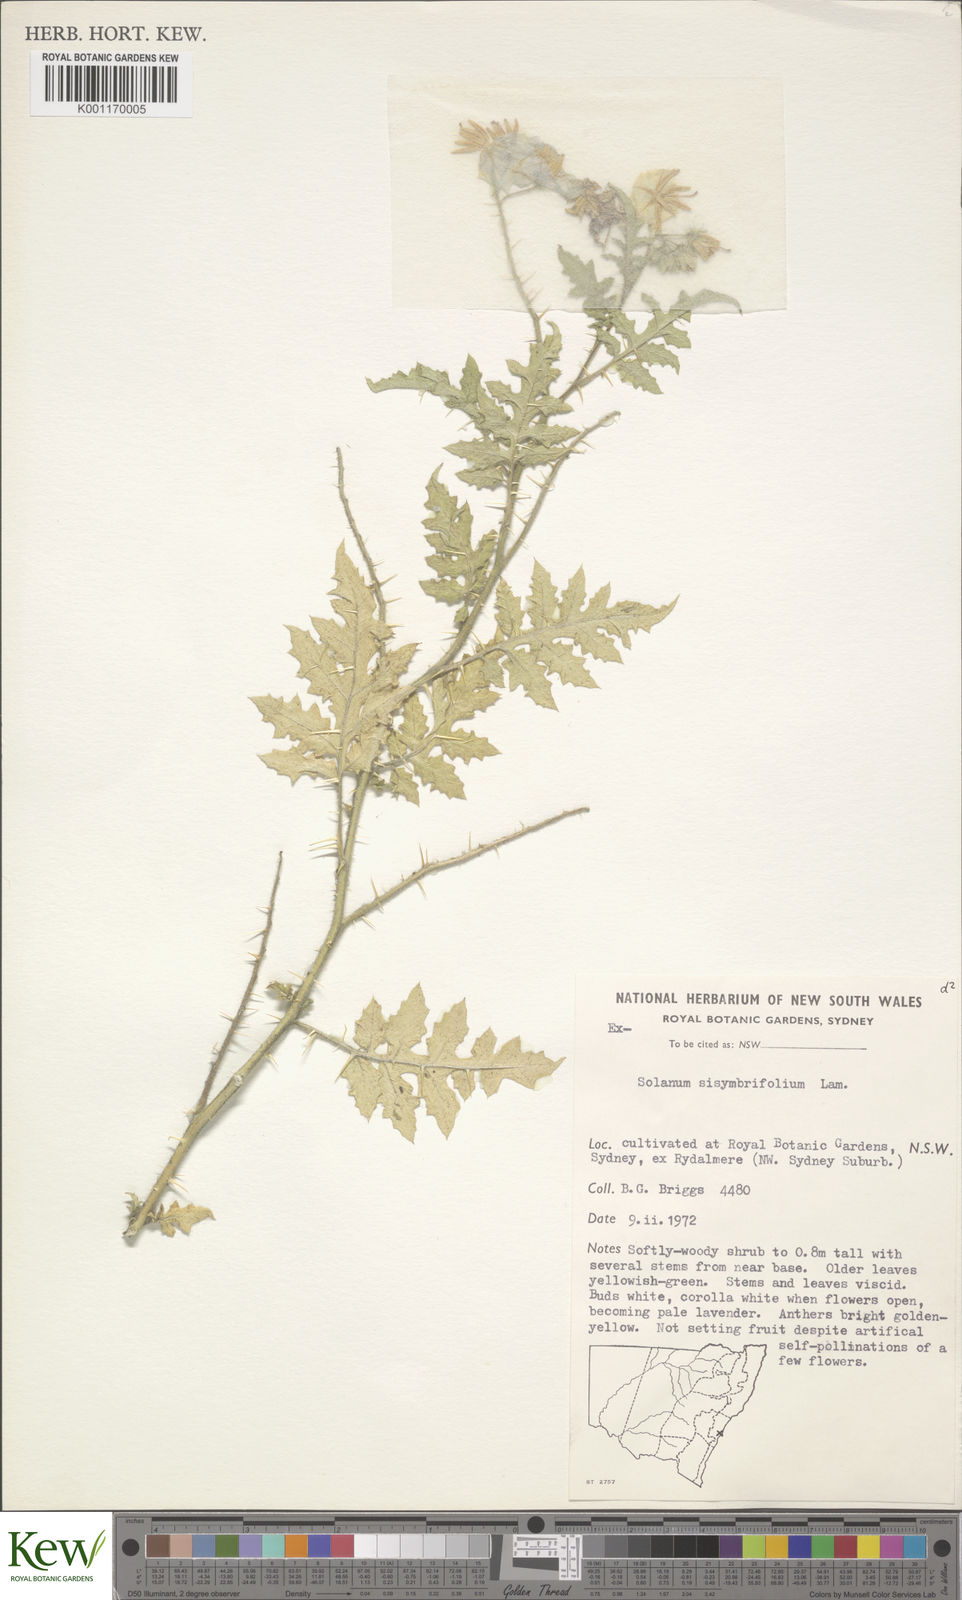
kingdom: Plantae
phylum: Tracheophyta
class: Magnoliopsida
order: Solanales
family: Solanaceae
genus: Solanum
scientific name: Solanum sisymbriifolium
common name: Red buffalo-bur
